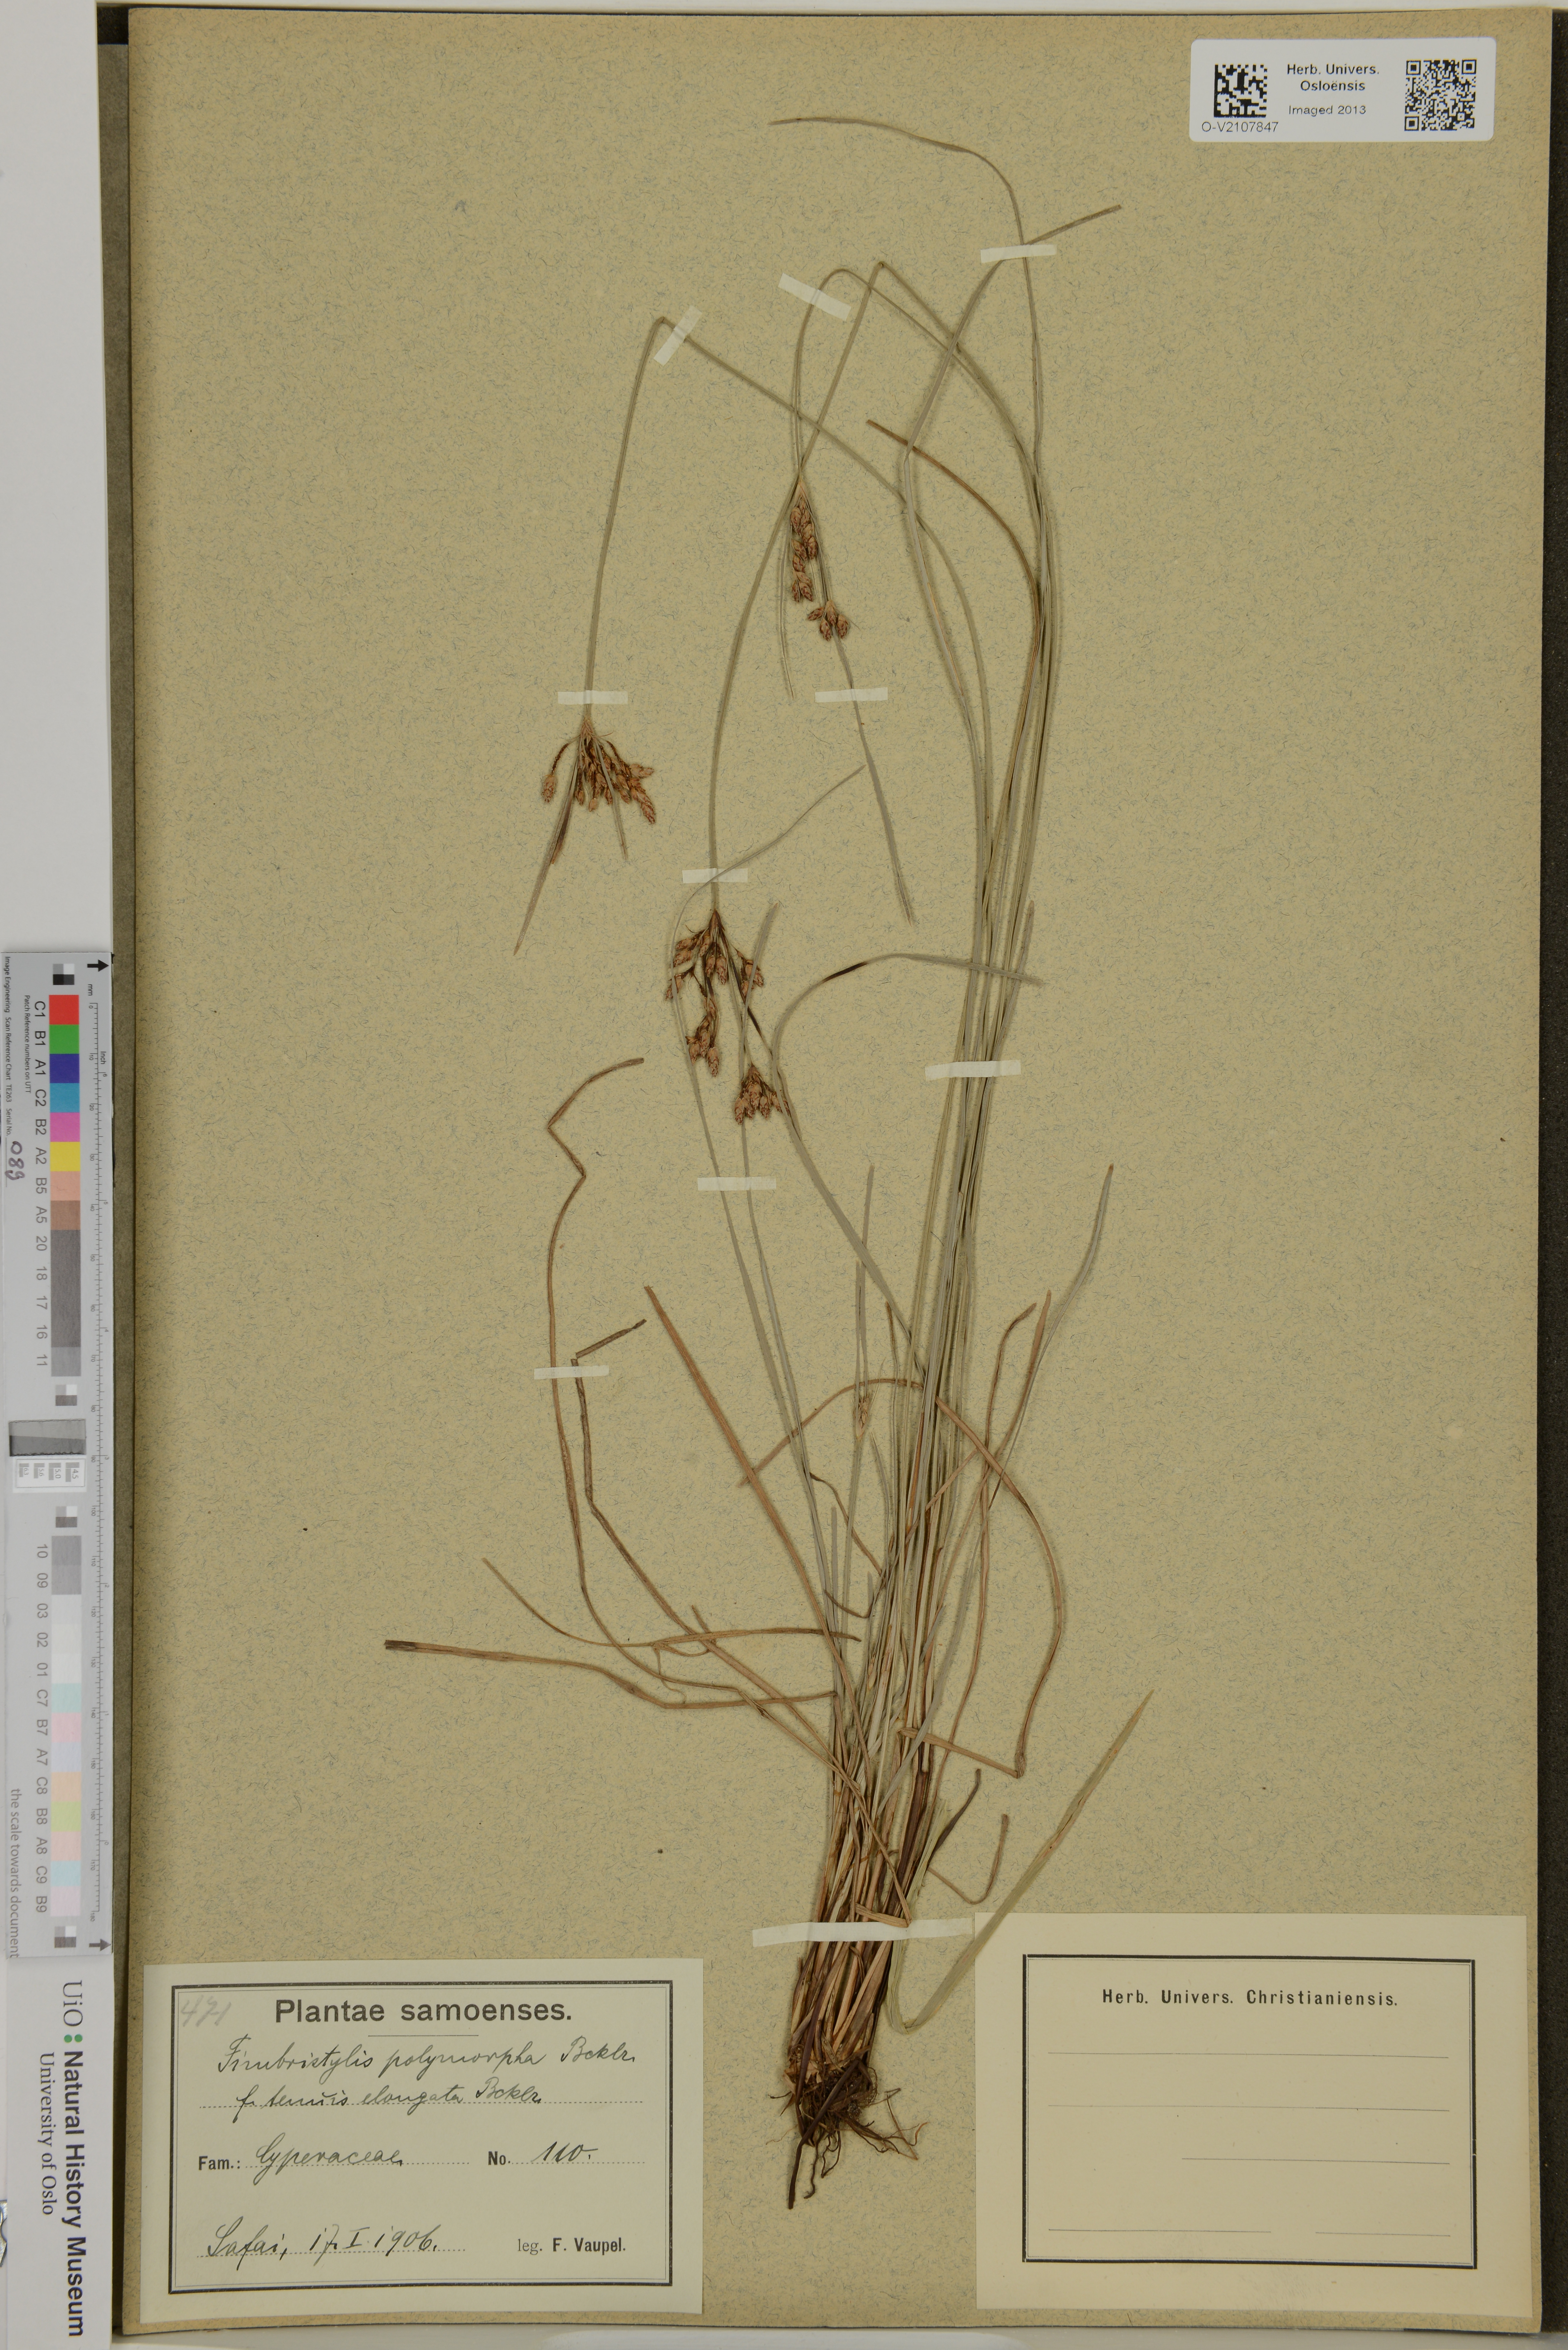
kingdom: Plantae
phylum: Tracheophyta
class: Liliopsida
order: Poales
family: Cyperaceae
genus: Fimbristylis
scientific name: Fimbristylis dichotoma
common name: Forked fimbry
